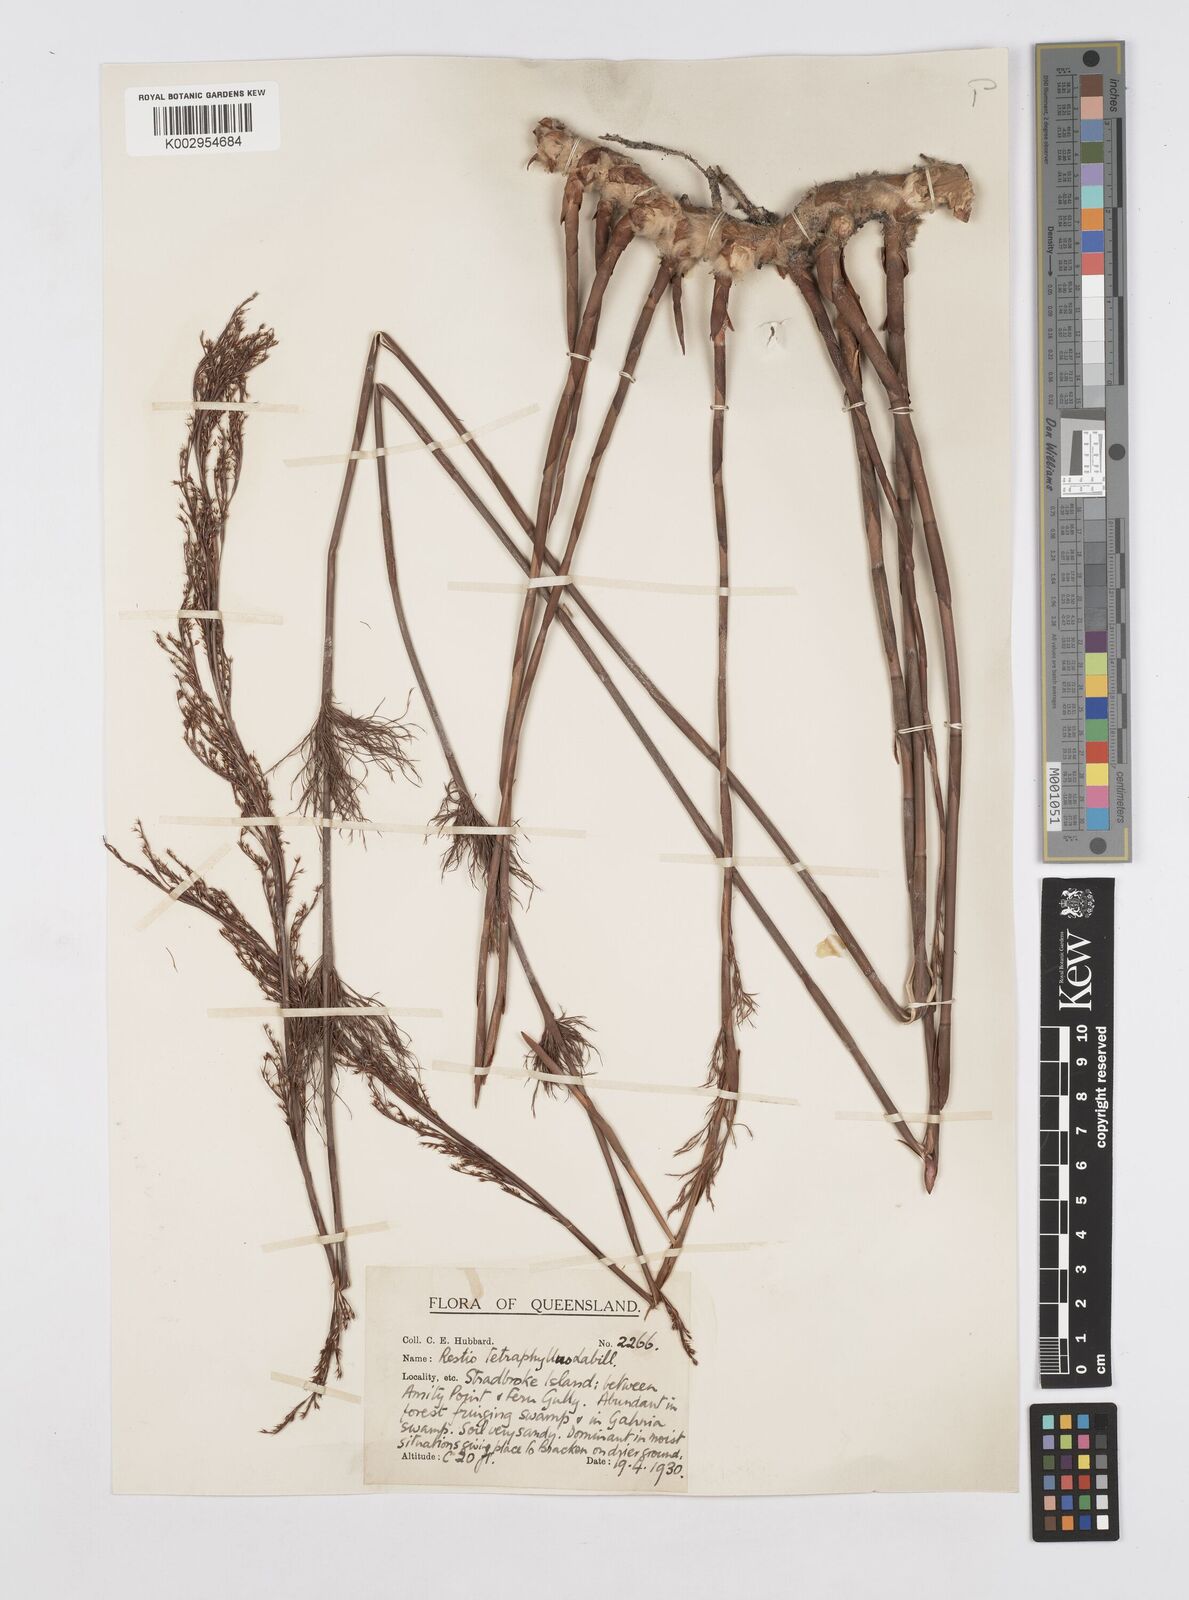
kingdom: Plantae
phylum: Tracheophyta
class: Liliopsida
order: Poales
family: Restionaceae
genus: Baloskion
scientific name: Baloskion tetraphyllum
